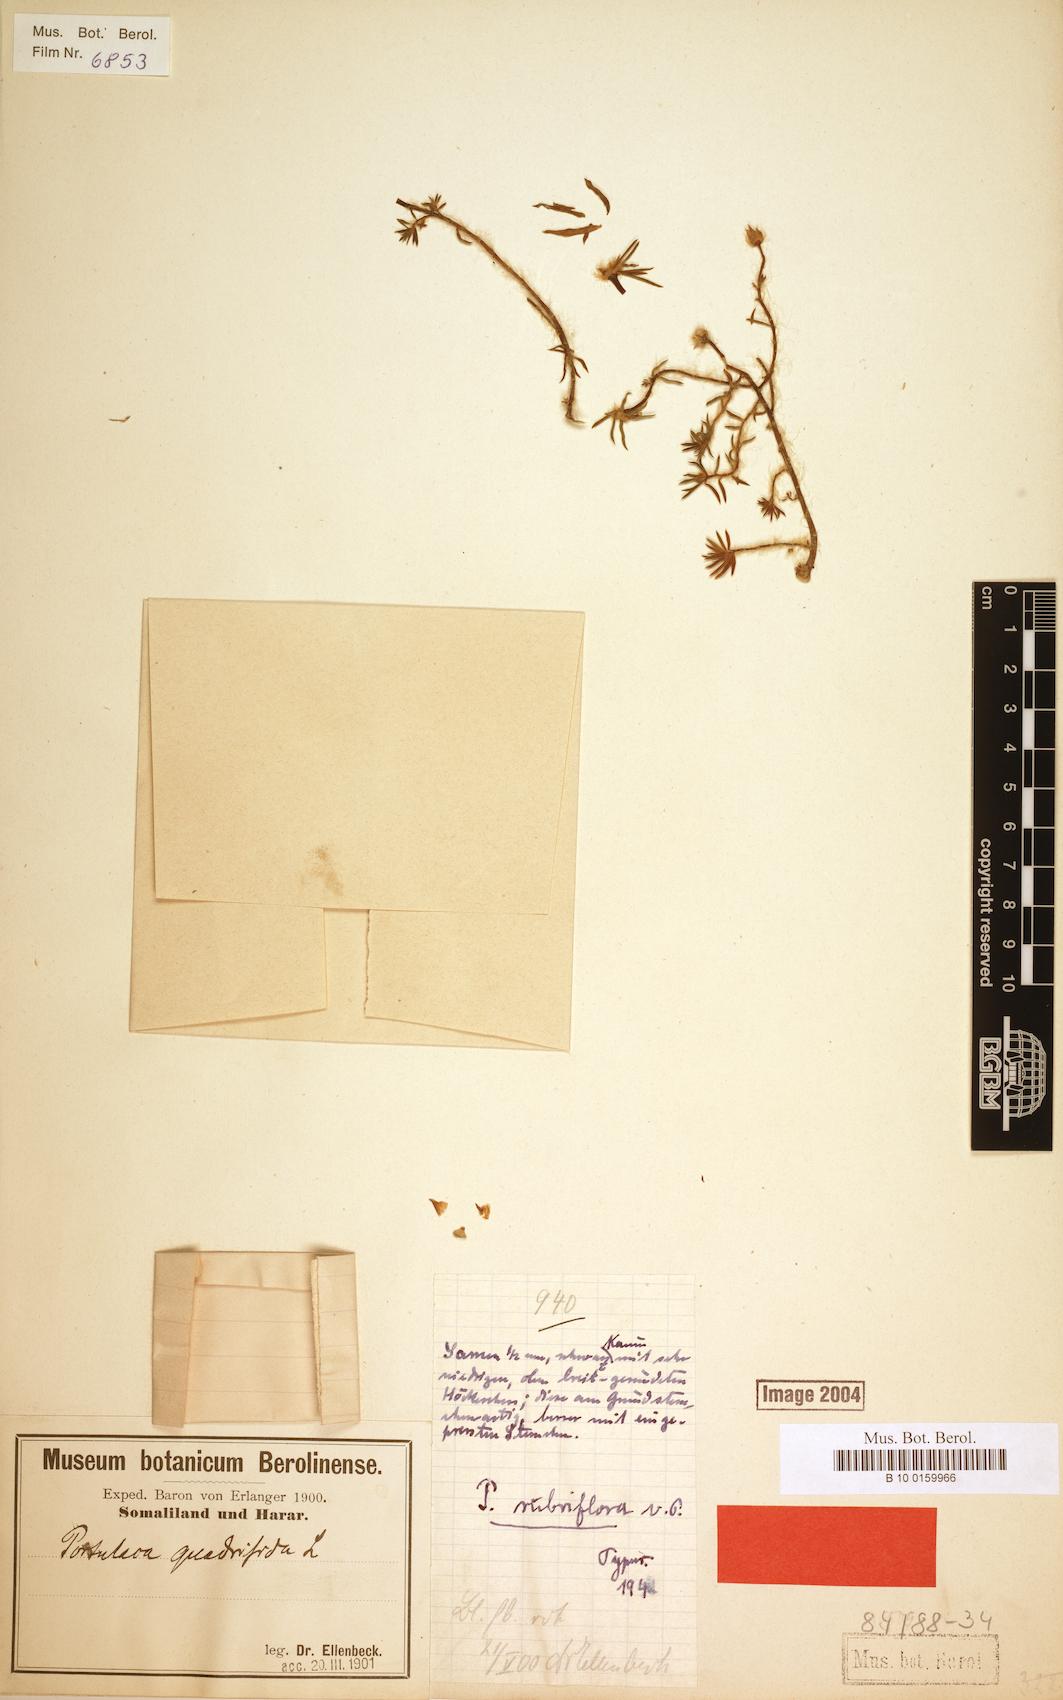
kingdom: Plantae
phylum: Tracheophyta
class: Magnoliopsida
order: Caryophyllales
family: Portulacaceae
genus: Portulaca
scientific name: Portulaca kermesina
